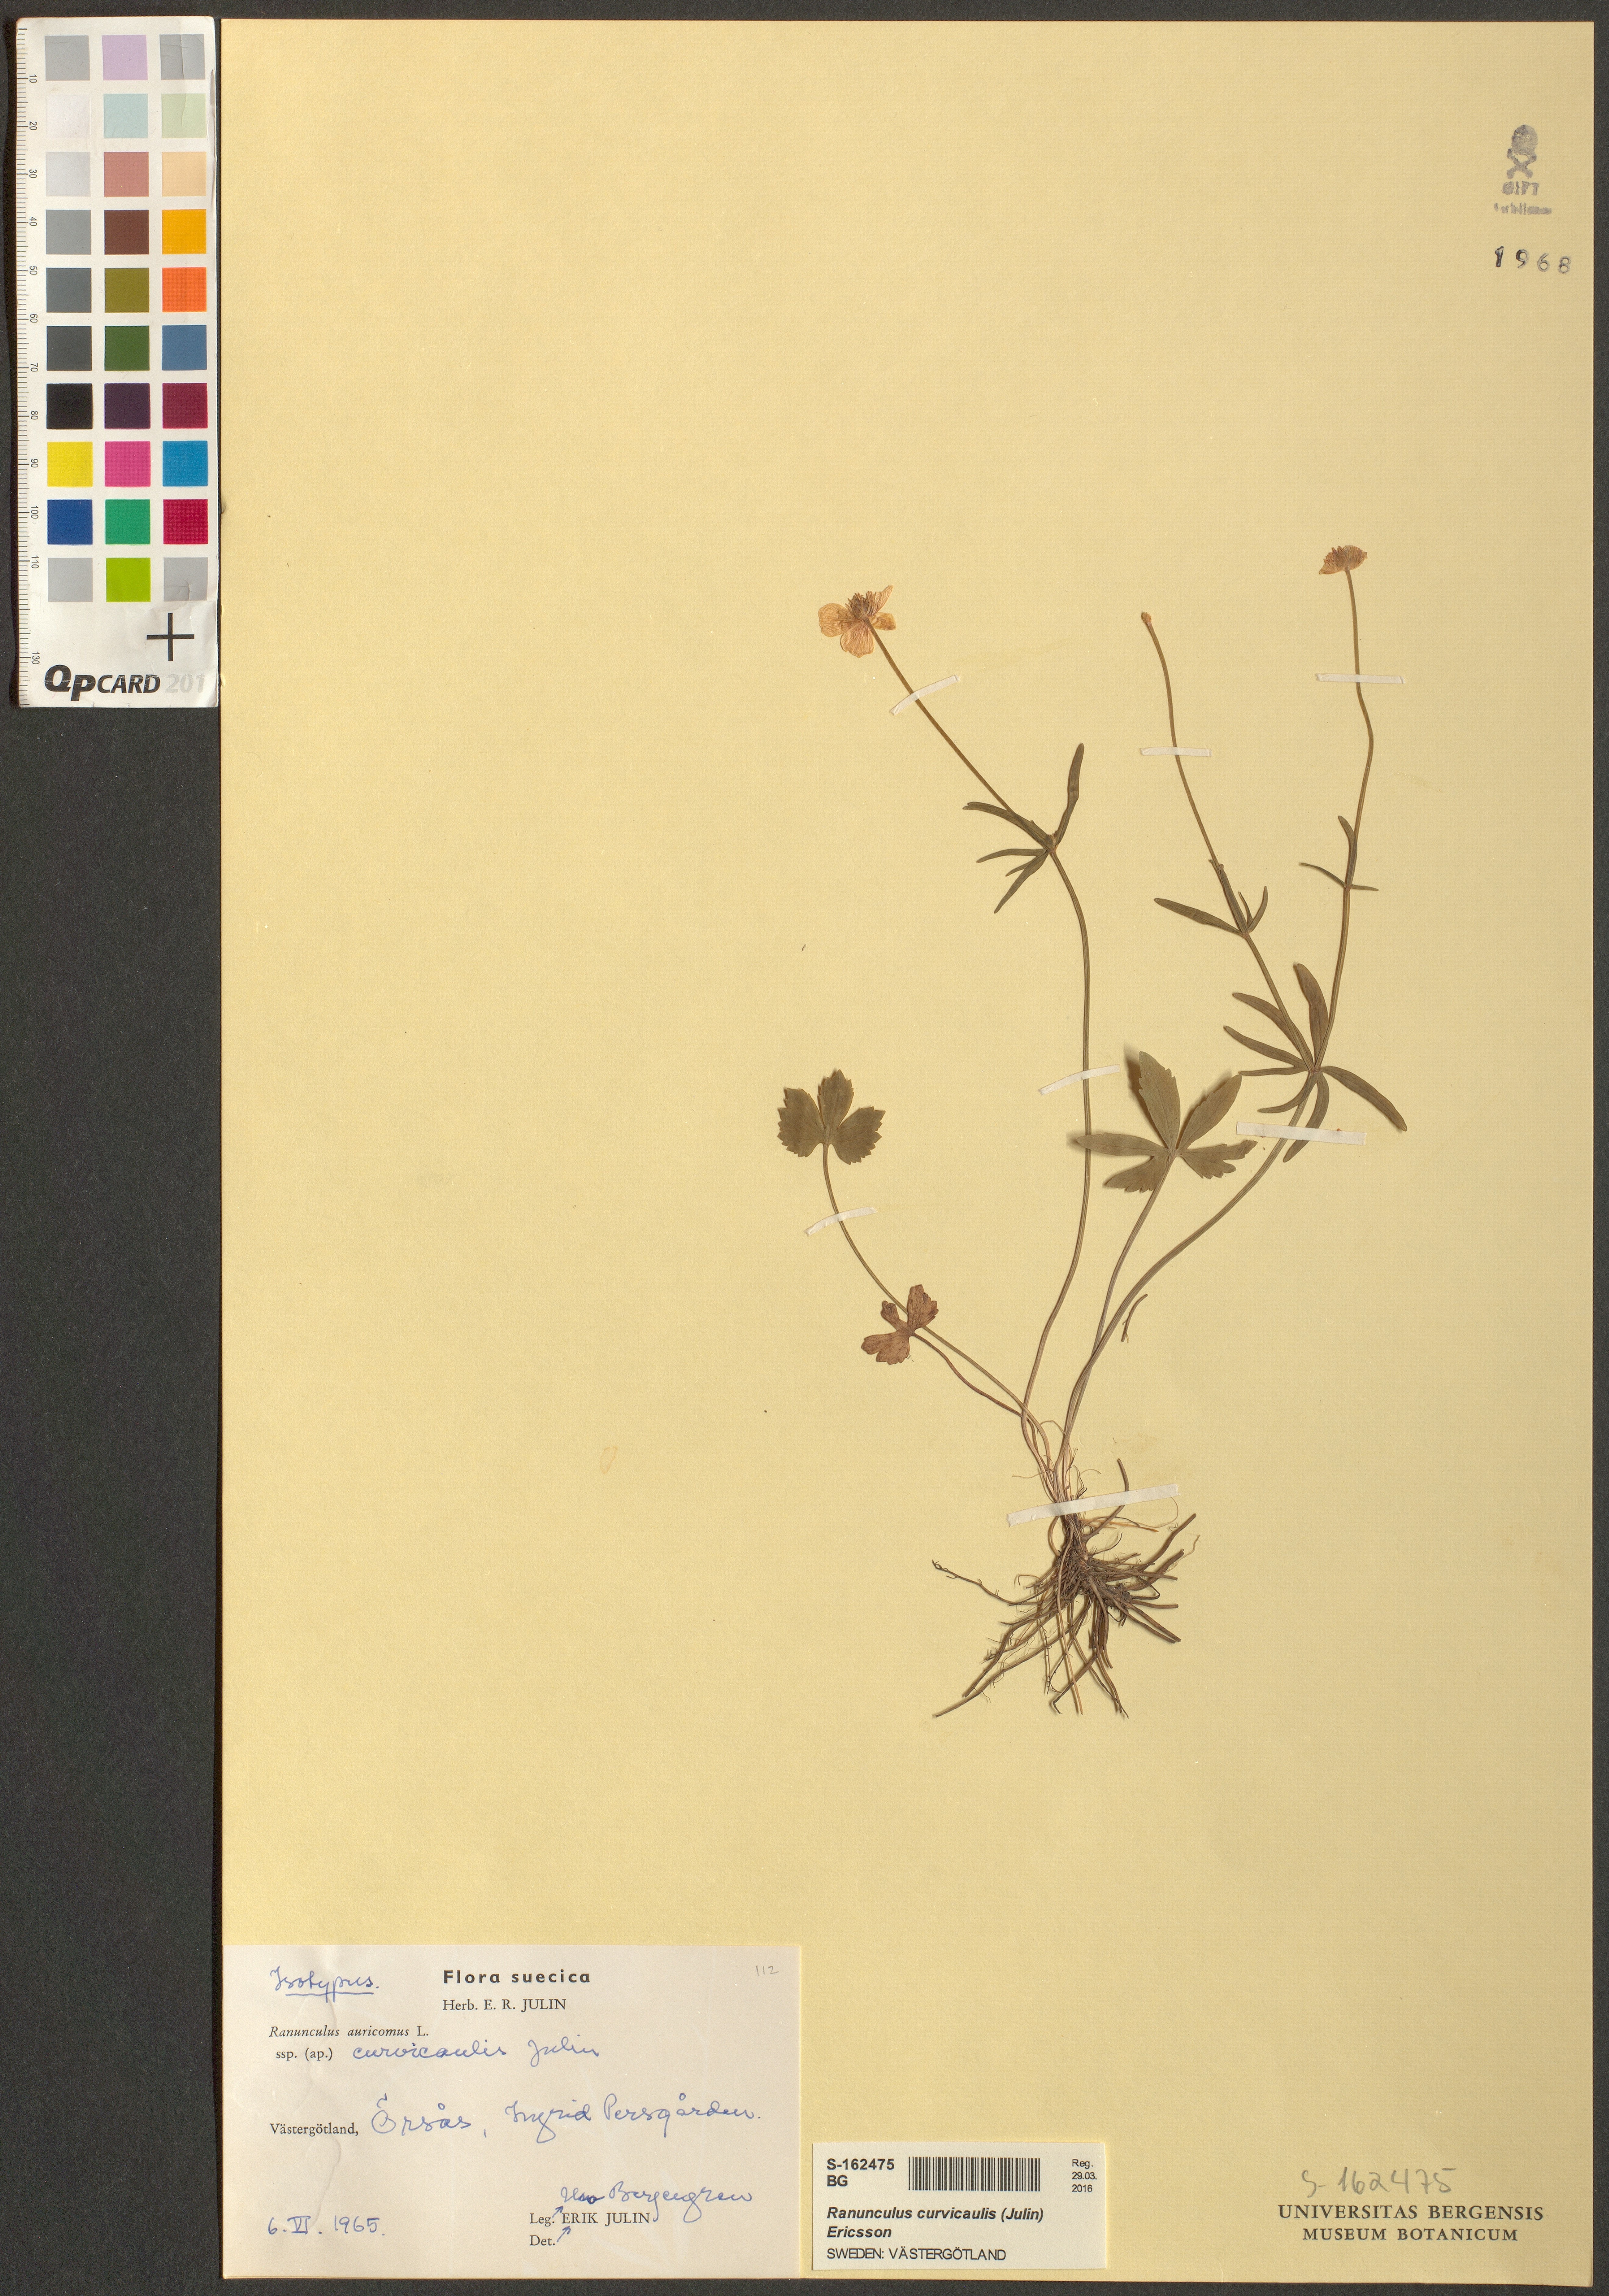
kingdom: Plantae
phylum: Tracheophyta
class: Magnoliopsida
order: Ranunculales
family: Ranunculaceae
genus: Ranunculus
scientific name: Ranunculus curvicaulis
